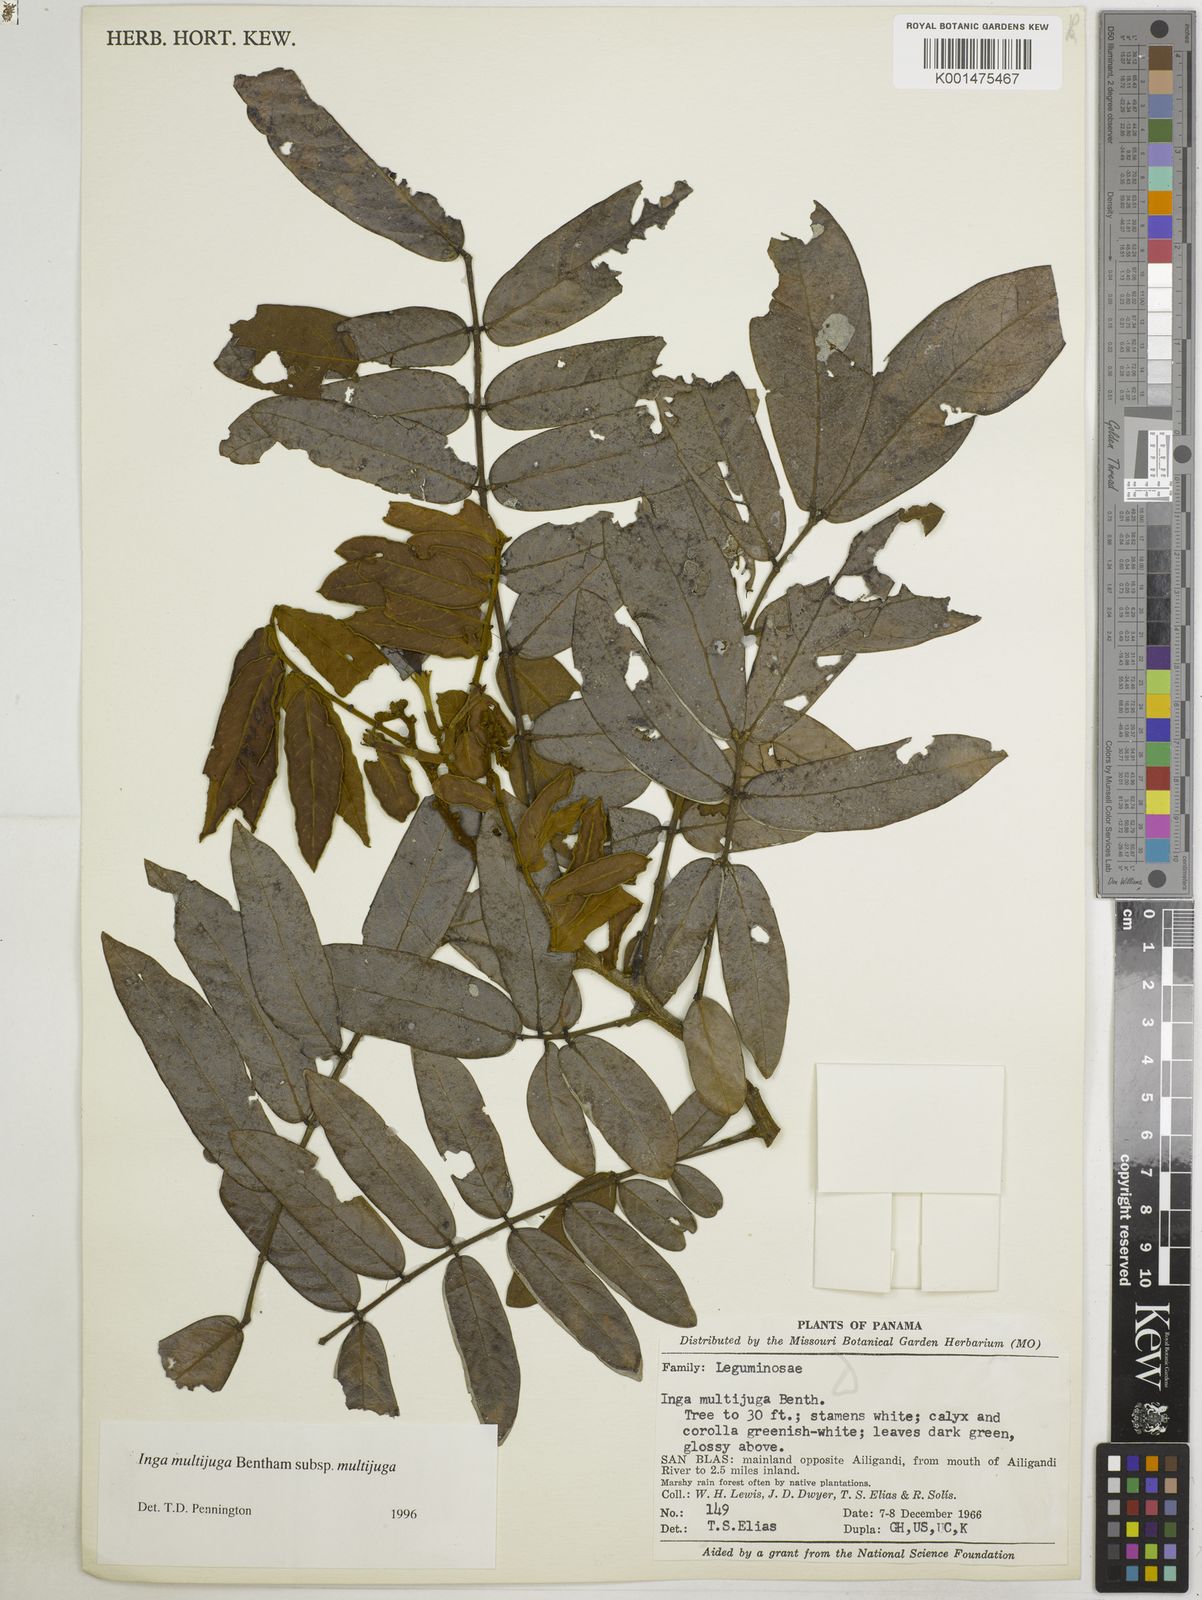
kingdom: Plantae
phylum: Tracheophyta
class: Magnoliopsida
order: Fabales
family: Fabaceae
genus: Inga
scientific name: Inga multijuga
